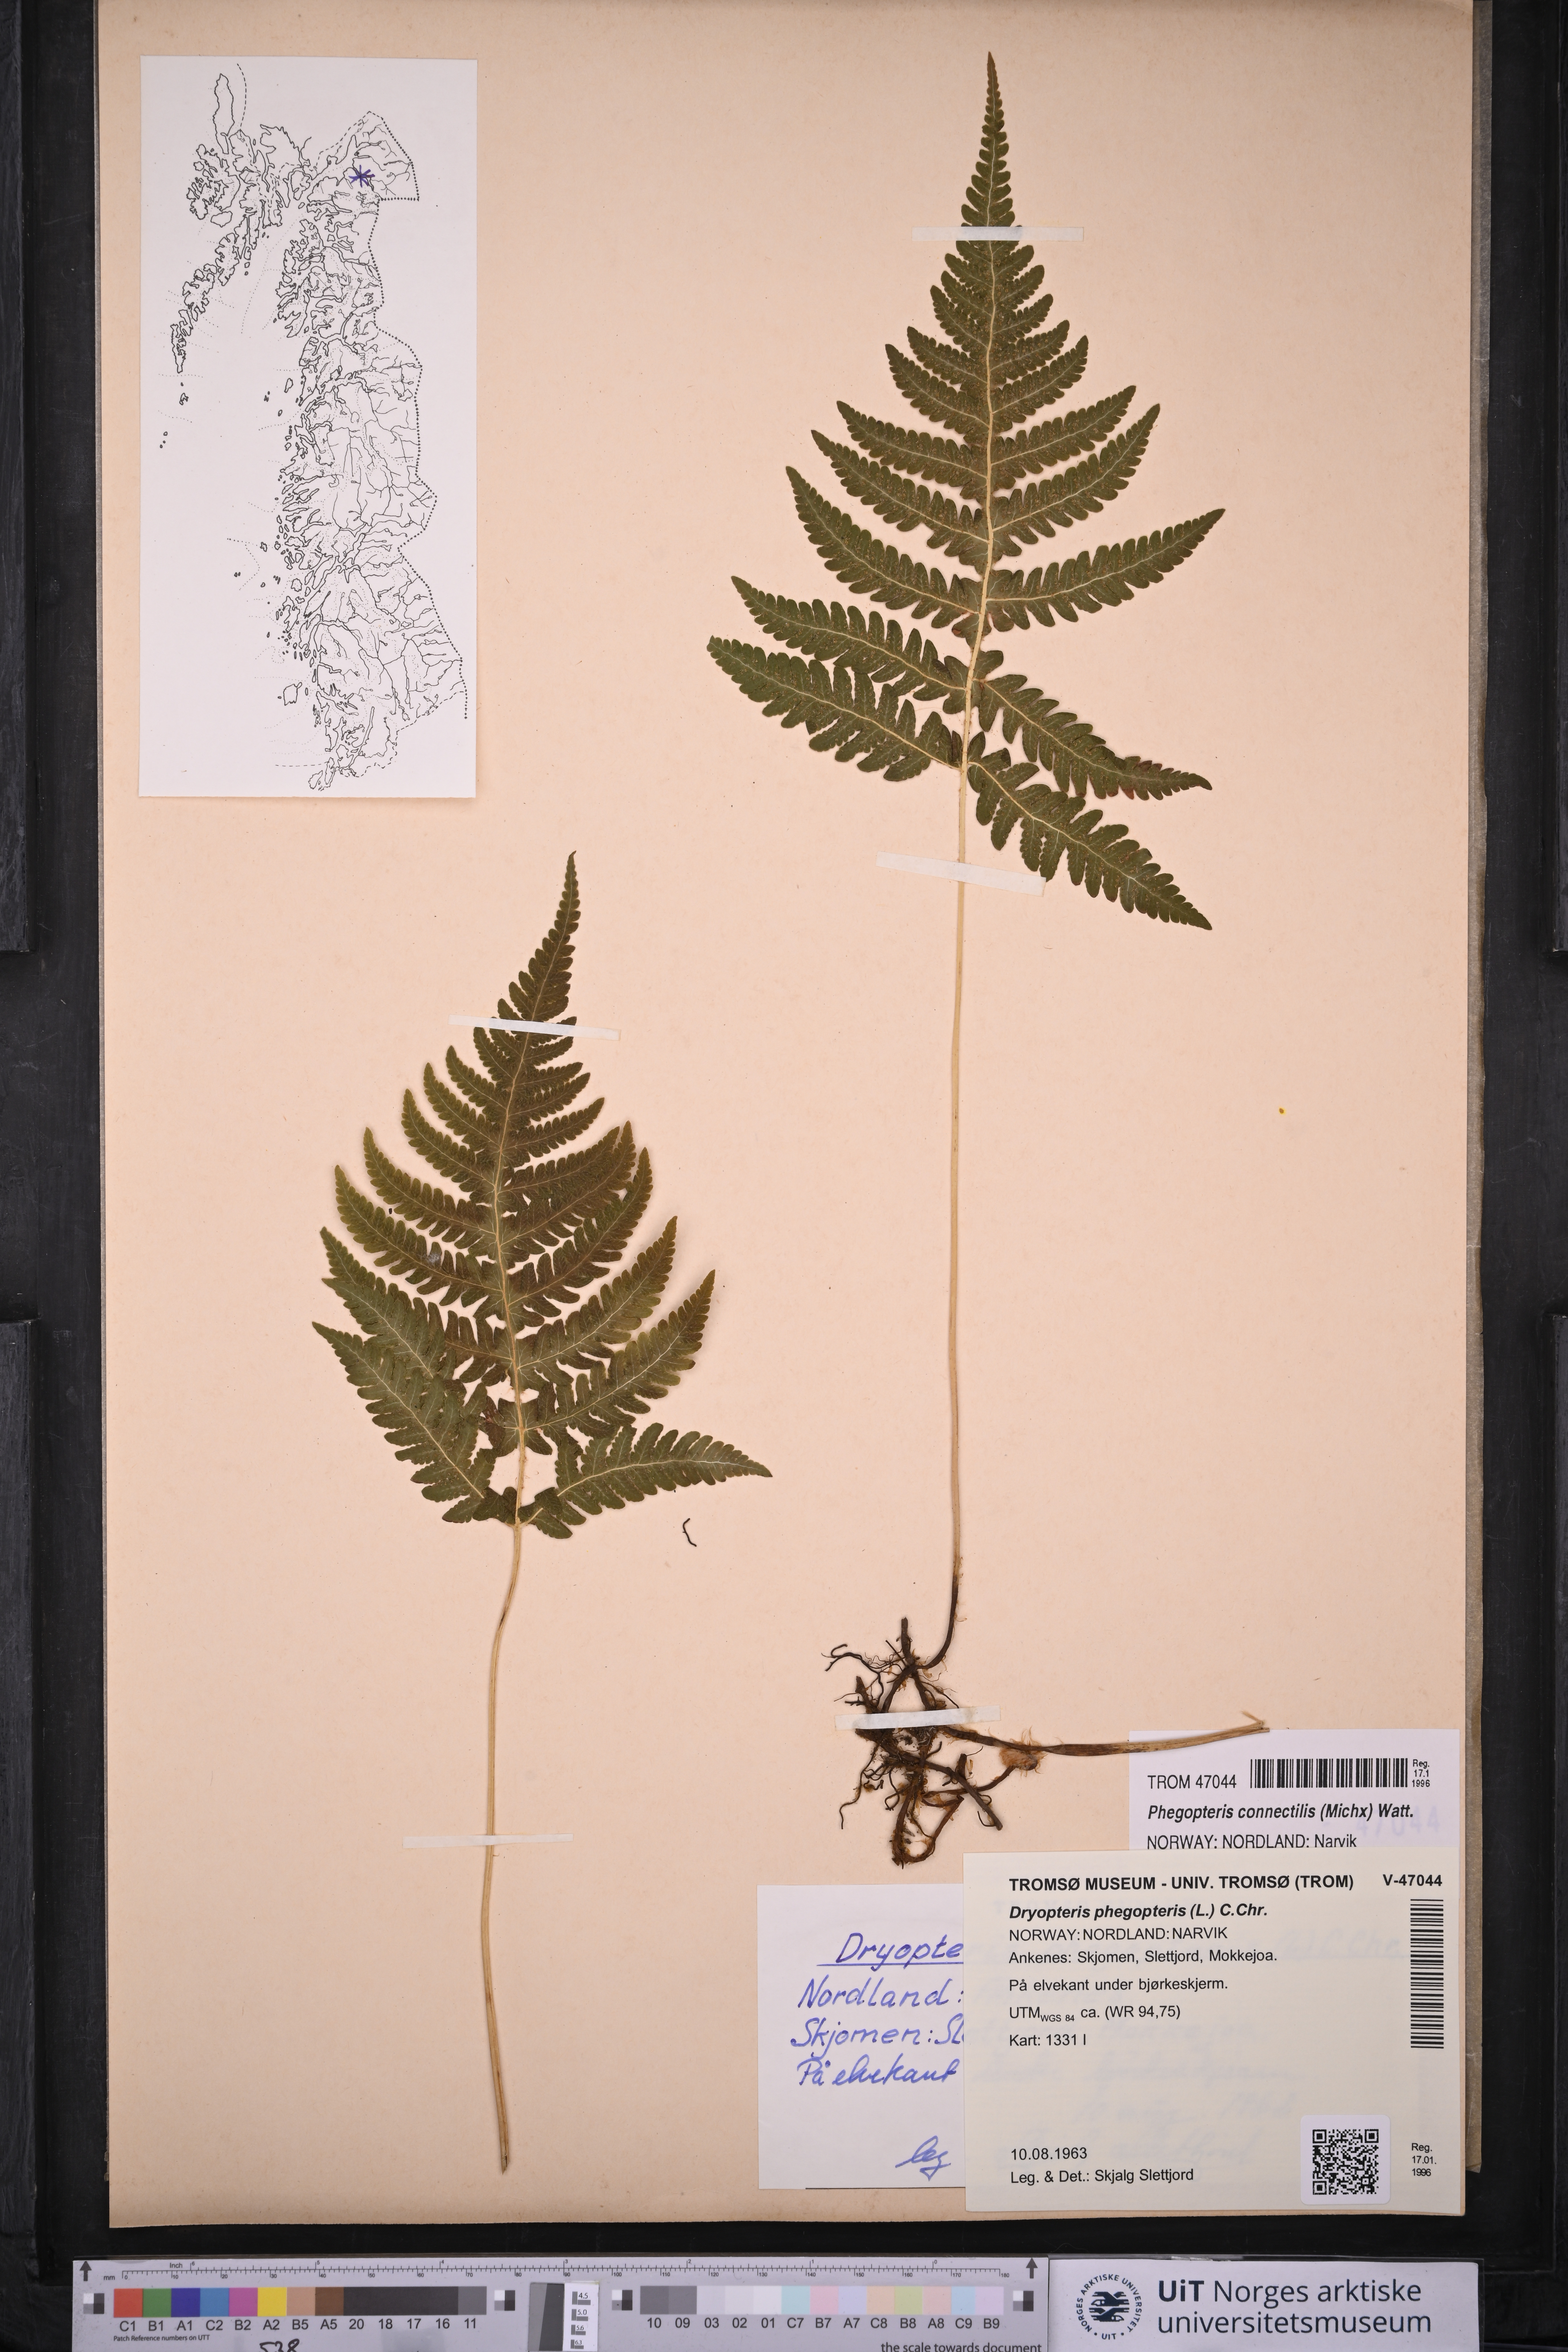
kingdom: Plantae
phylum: Tracheophyta
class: Polypodiopsida
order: Polypodiales
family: Thelypteridaceae
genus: Phegopteris
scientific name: Phegopteris connectilis
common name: Beech fern
